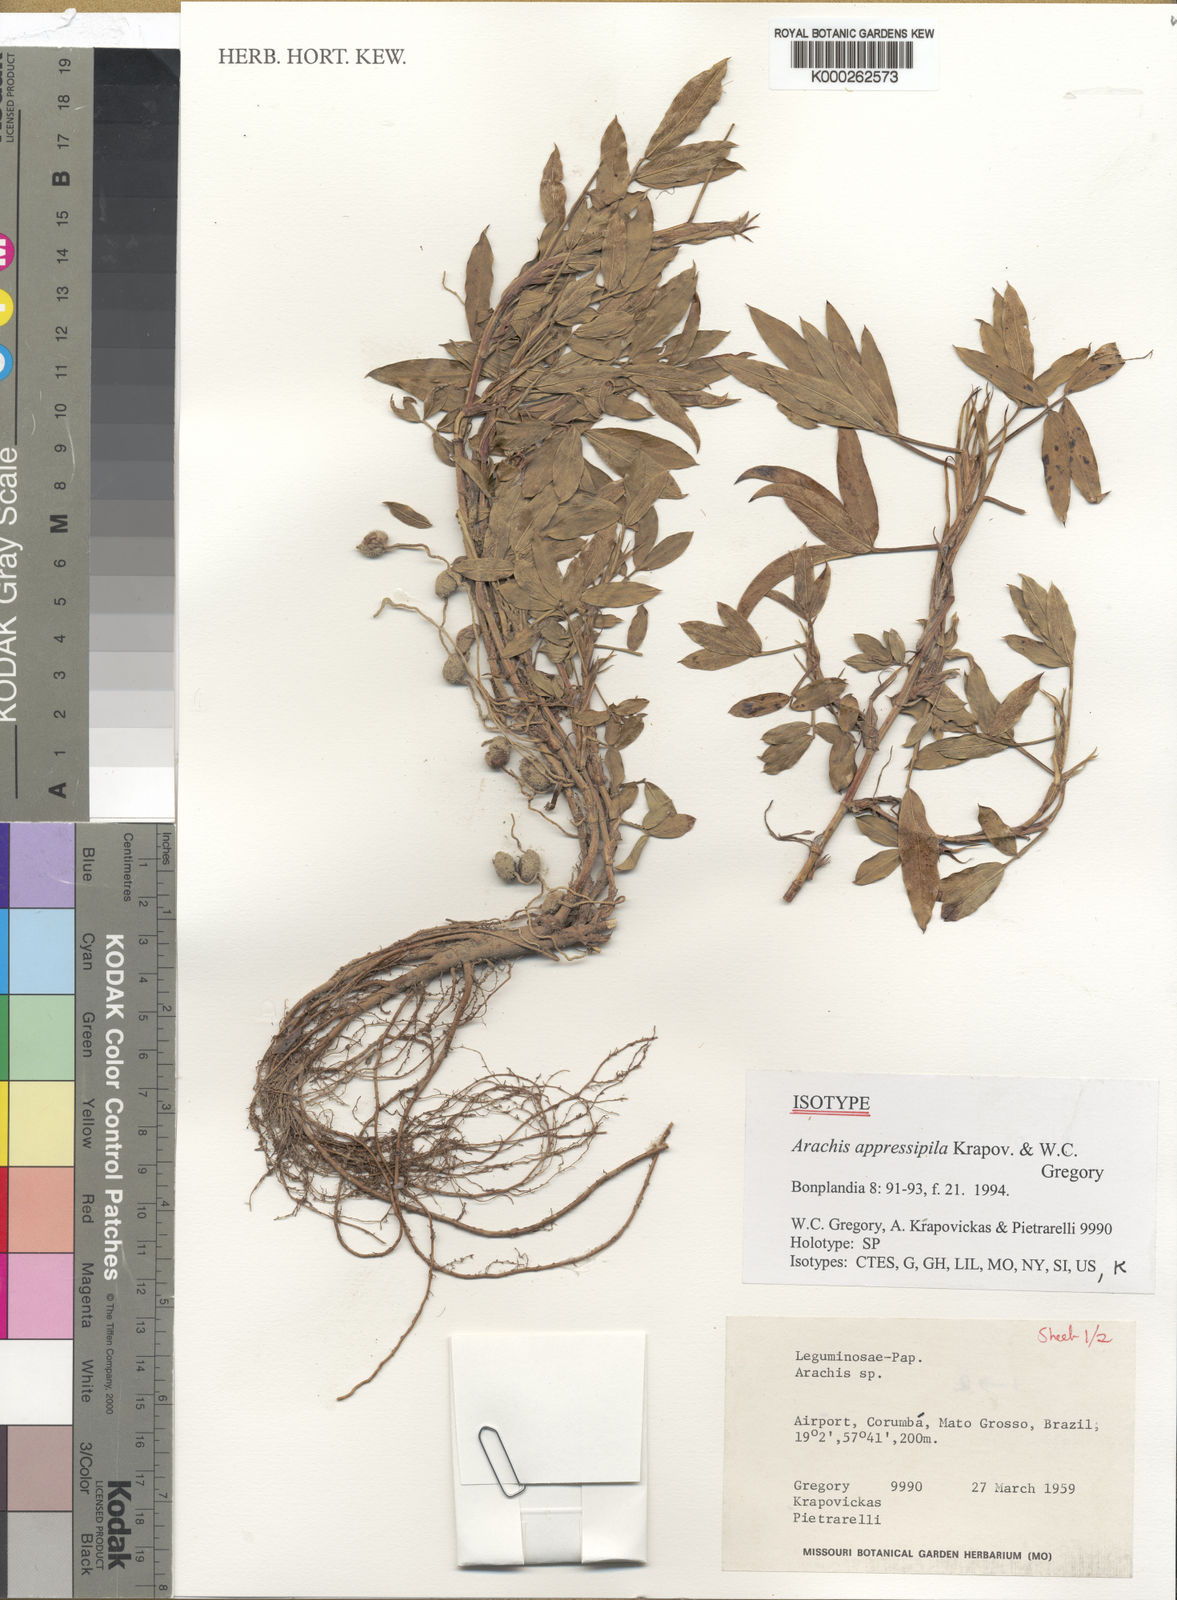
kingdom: Plantae
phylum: Tracheophyta
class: Magnoliopsida
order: Fabales
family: Fabaceae
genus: Arachis
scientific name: Arachis appressipila
